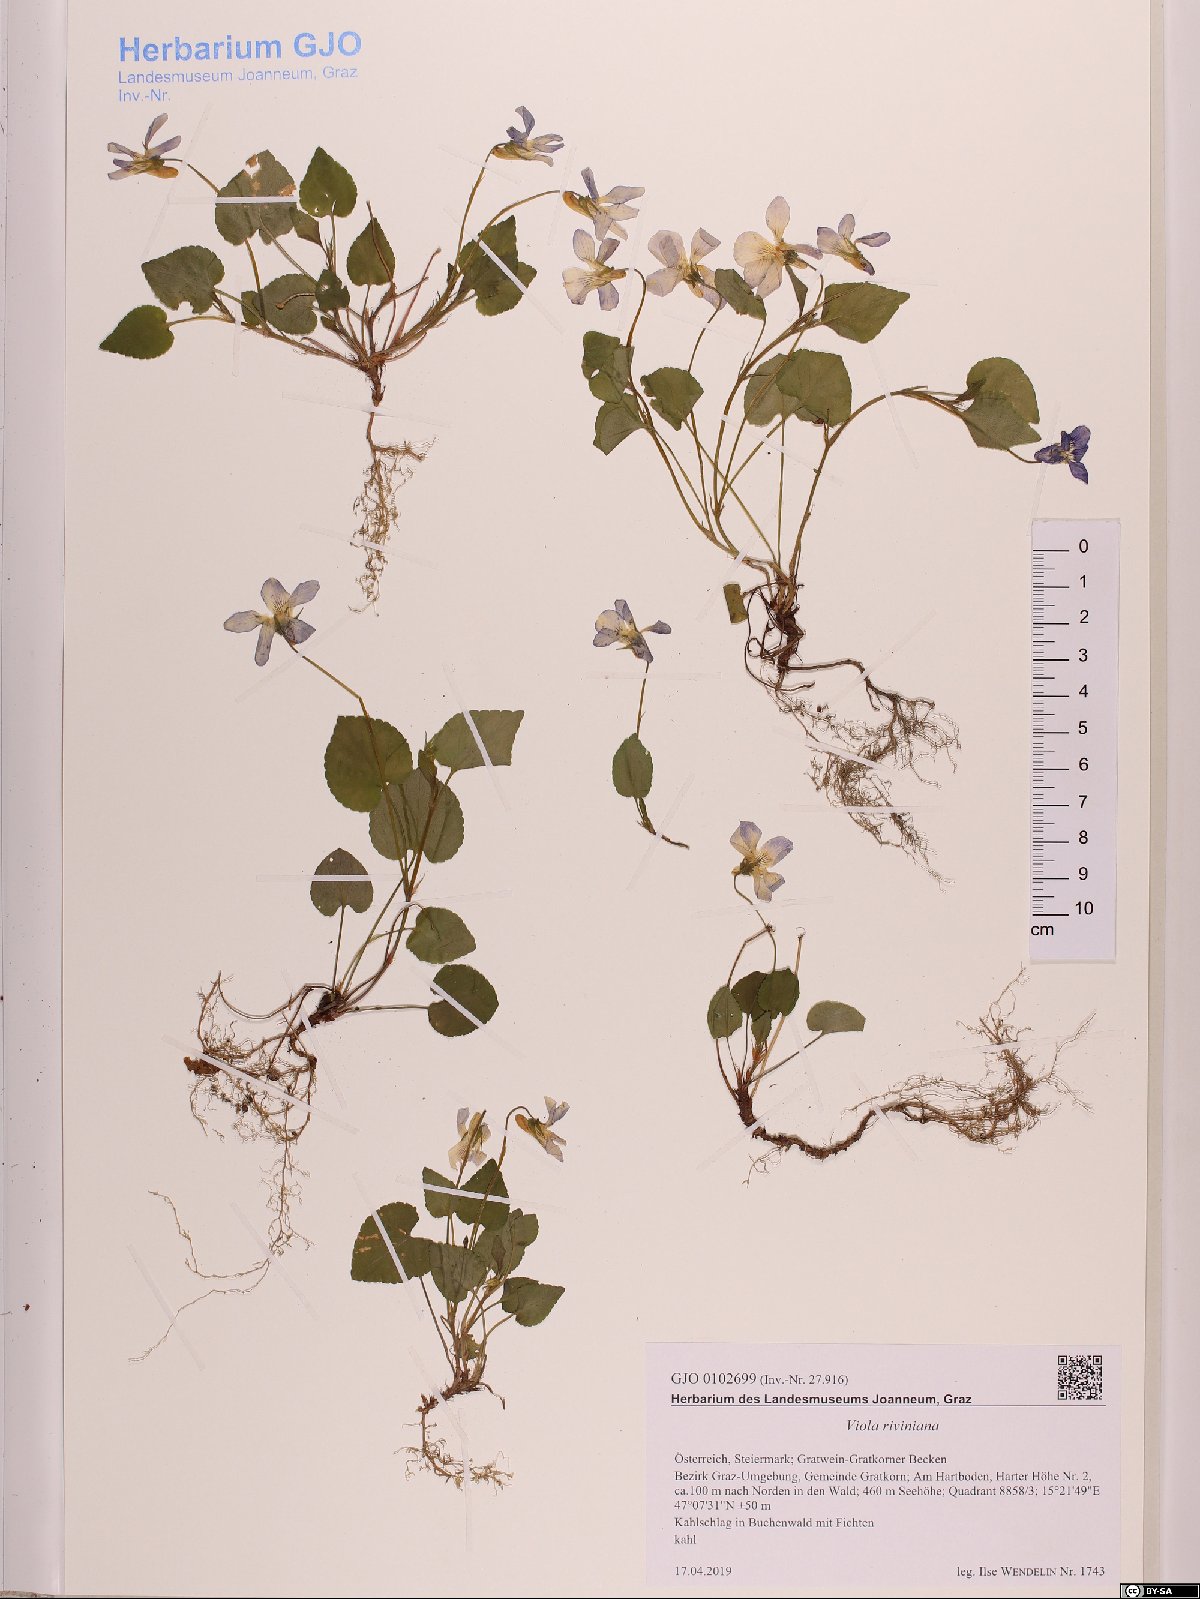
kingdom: Plantae
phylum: Tracheophyta
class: Magnoliopsida
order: Malpighiales
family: Violaceae
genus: Viola
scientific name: Viola riviniana
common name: Common dog-violet
